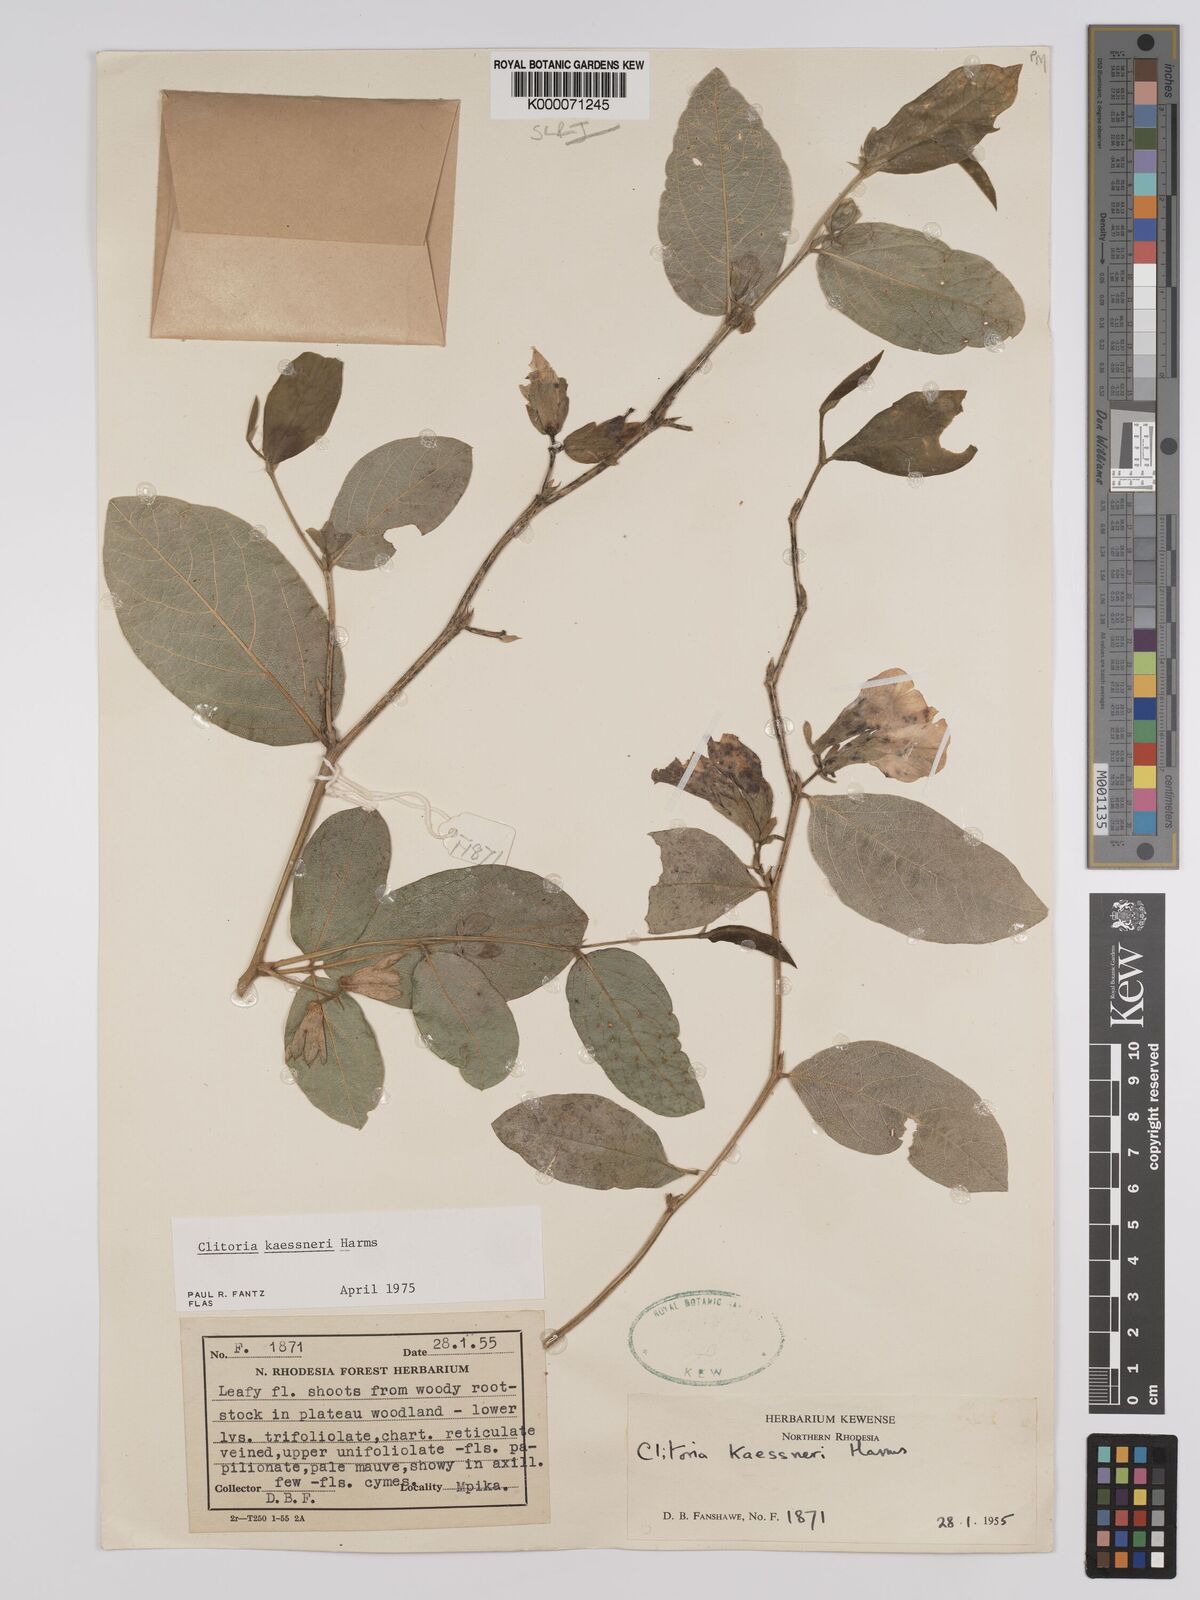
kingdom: Plantae
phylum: Tracheophyta
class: Magnoliopsida
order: Fabales
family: Fabaceae
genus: Clitoria
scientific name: Clitoria kaessneri
